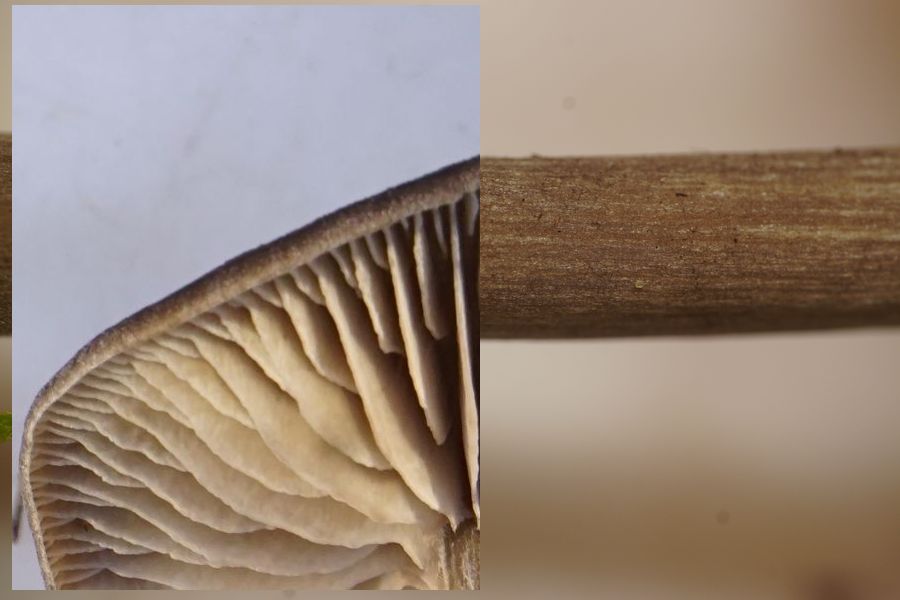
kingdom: Fungi
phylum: Basidiomycota
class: Agaricomycetes
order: Agaricales
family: Entolomataceae
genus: Entoloma
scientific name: Entoloma
